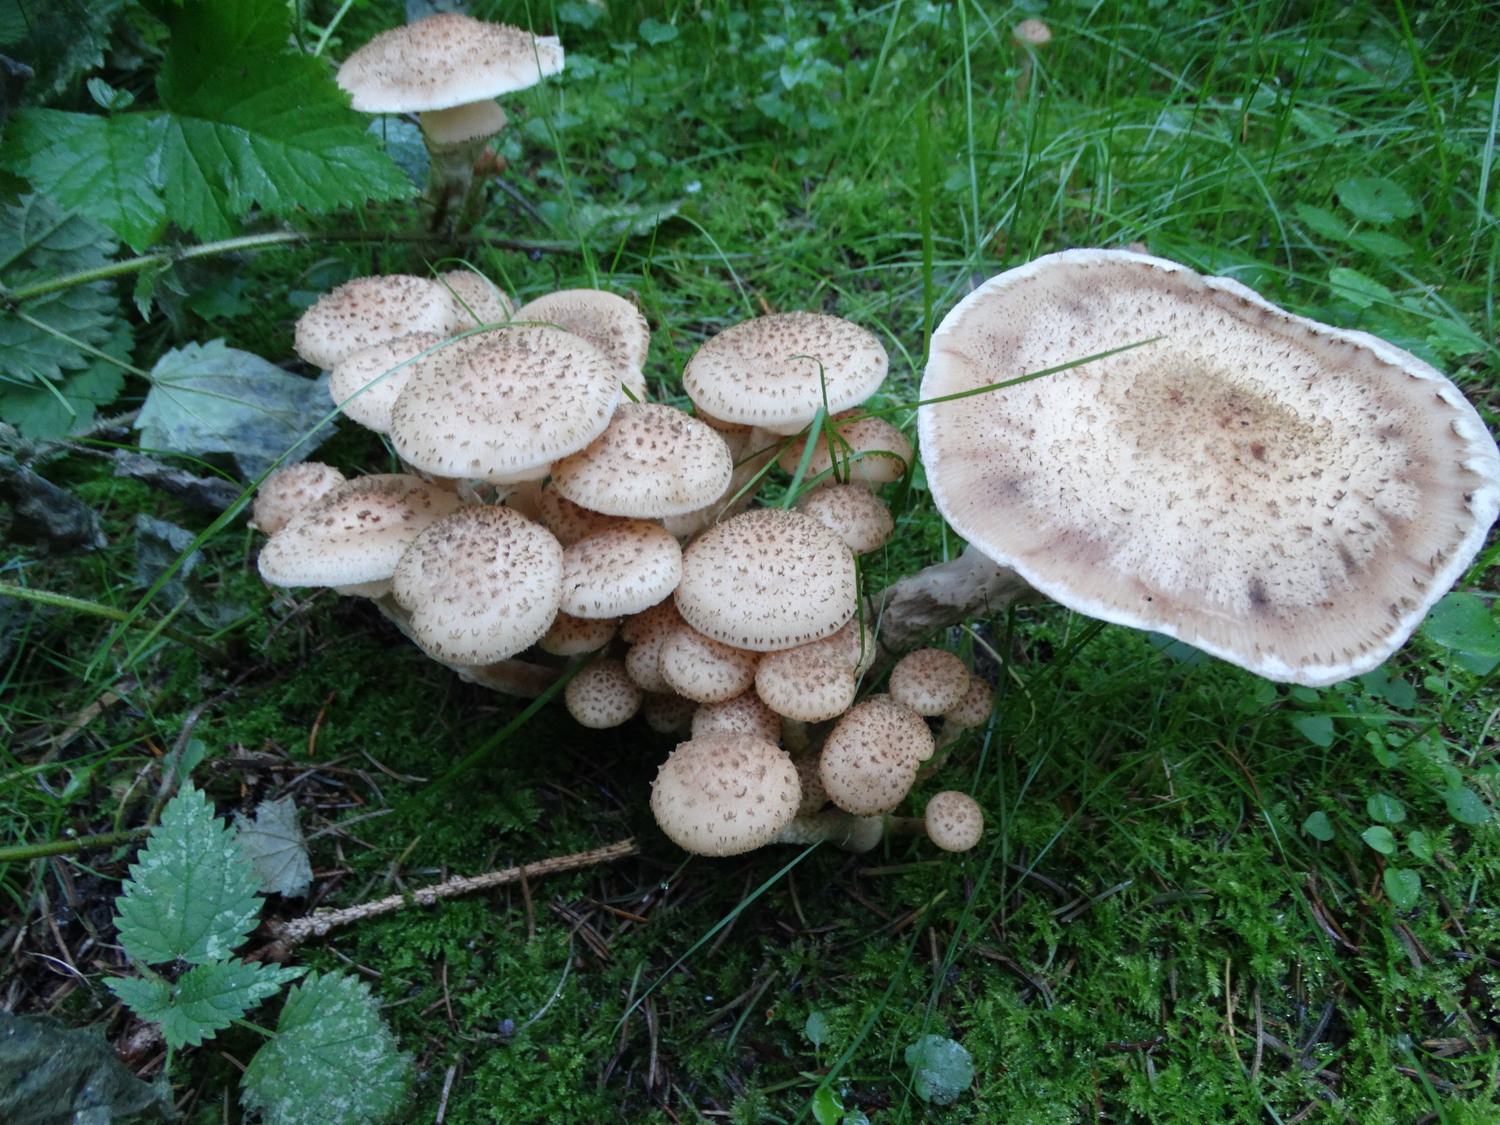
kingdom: Fungi
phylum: Basidiomycota
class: Agaricomycetes
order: Agaricales
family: Physalacriaceae
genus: Armillaria
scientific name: Armillaria ostoyae
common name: mørk honningsvamp
